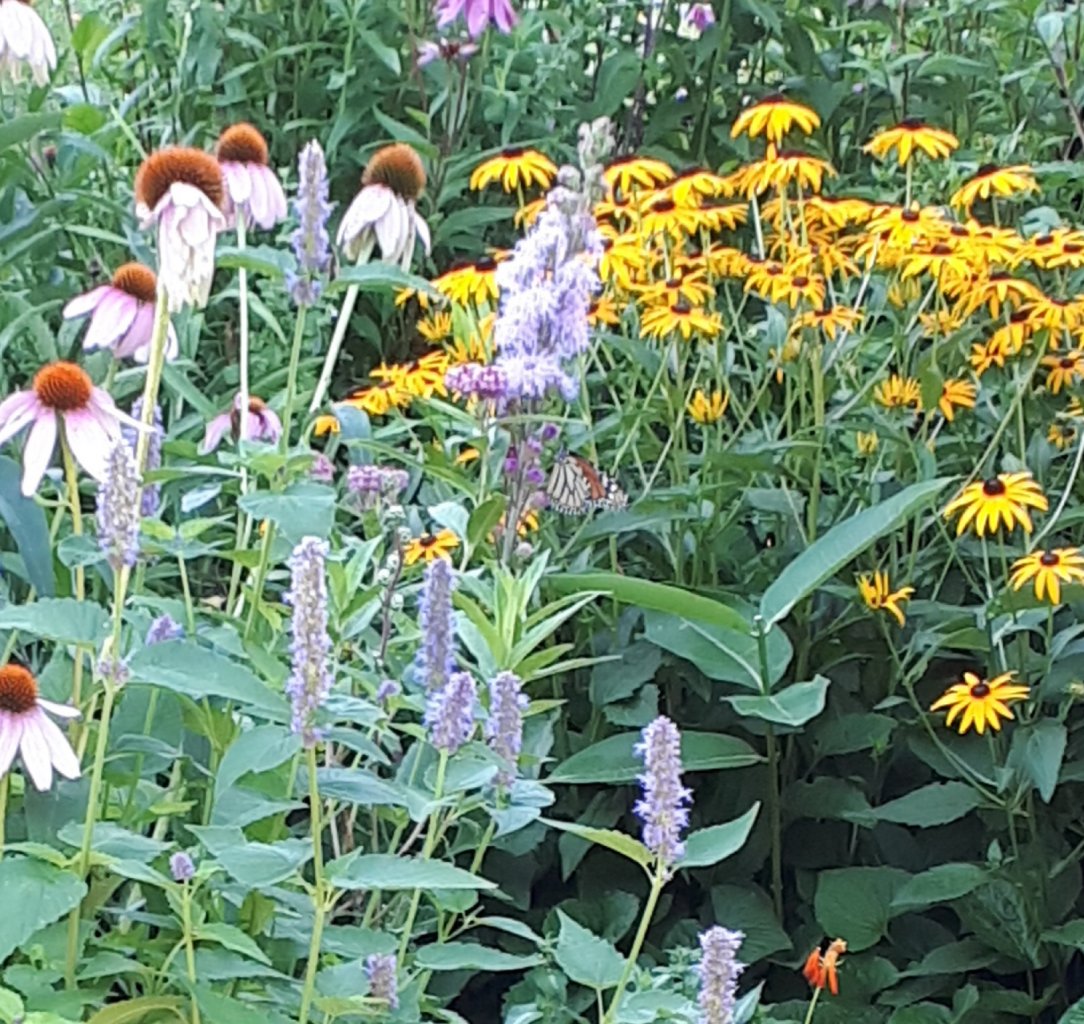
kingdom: Animalia
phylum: Arthropoda
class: Insecta
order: Lepidoptera
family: Nymphalidae
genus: Danaus
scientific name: Danaus plexippus
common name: Monarch
